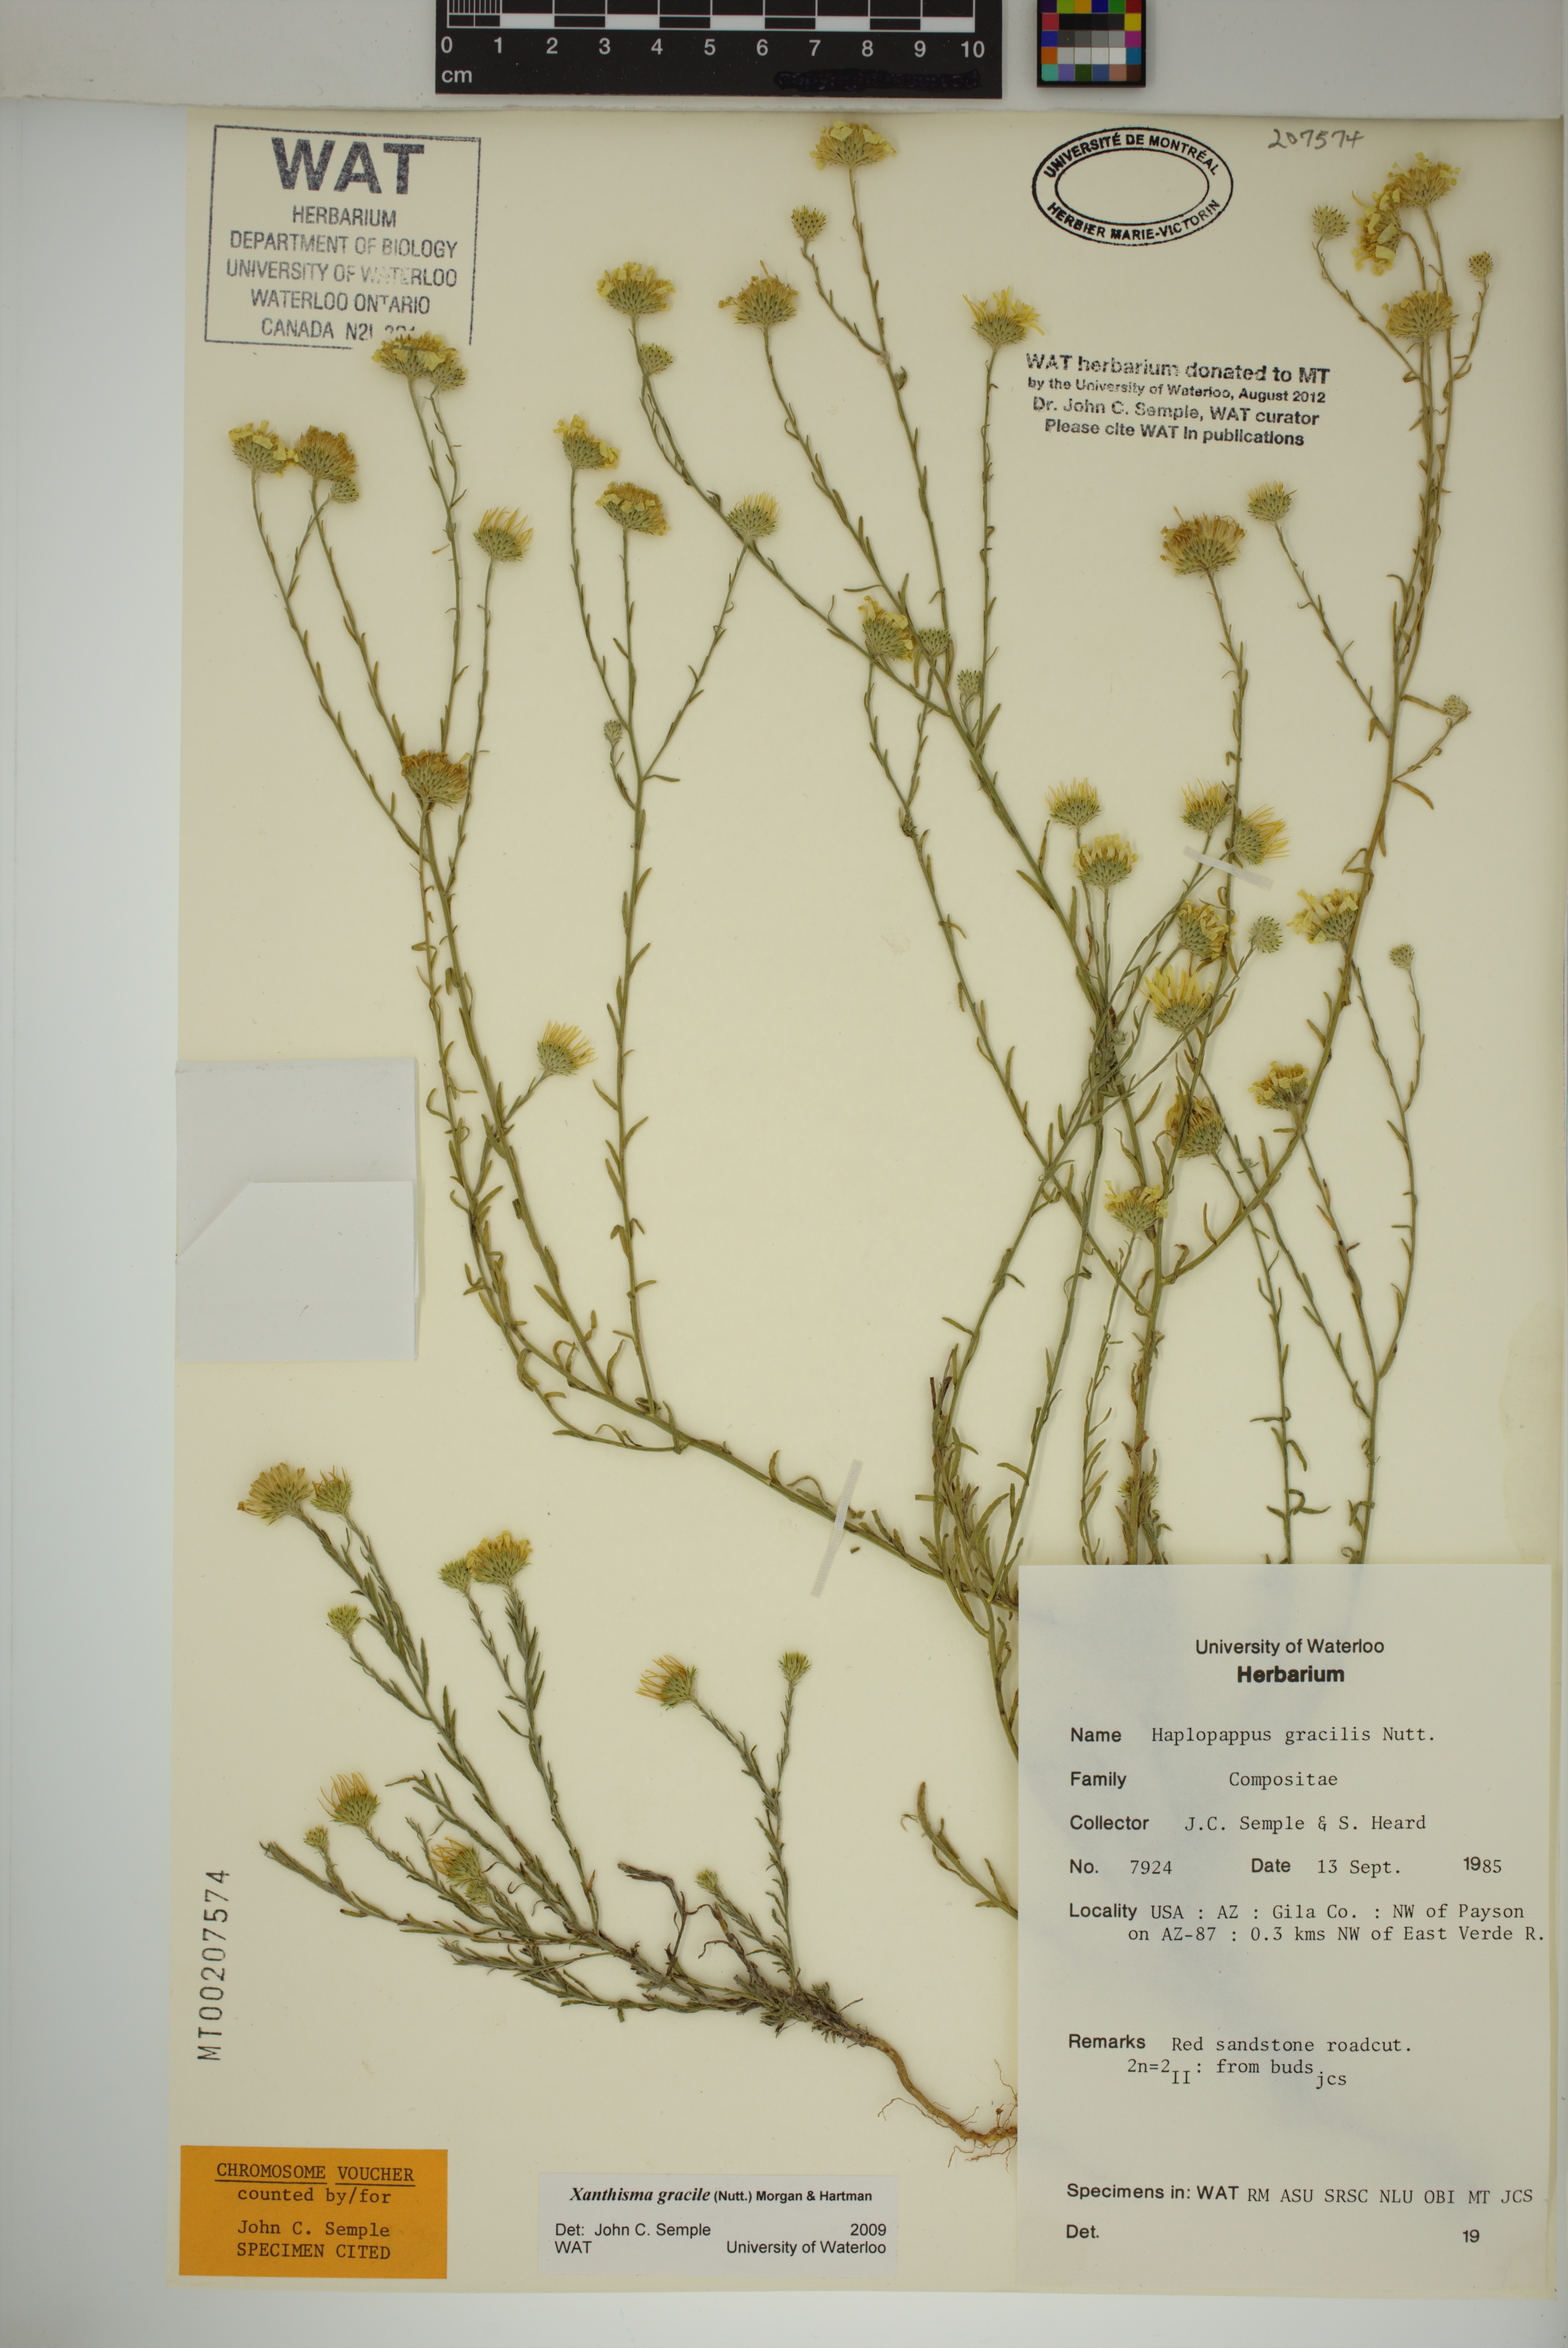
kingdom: Plantae
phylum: Tracheophyta
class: Magnoliopsida
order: Asterales
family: Asteraceae
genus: Xanthisma
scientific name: Xanthisma gracile
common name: Slender goldenweed
